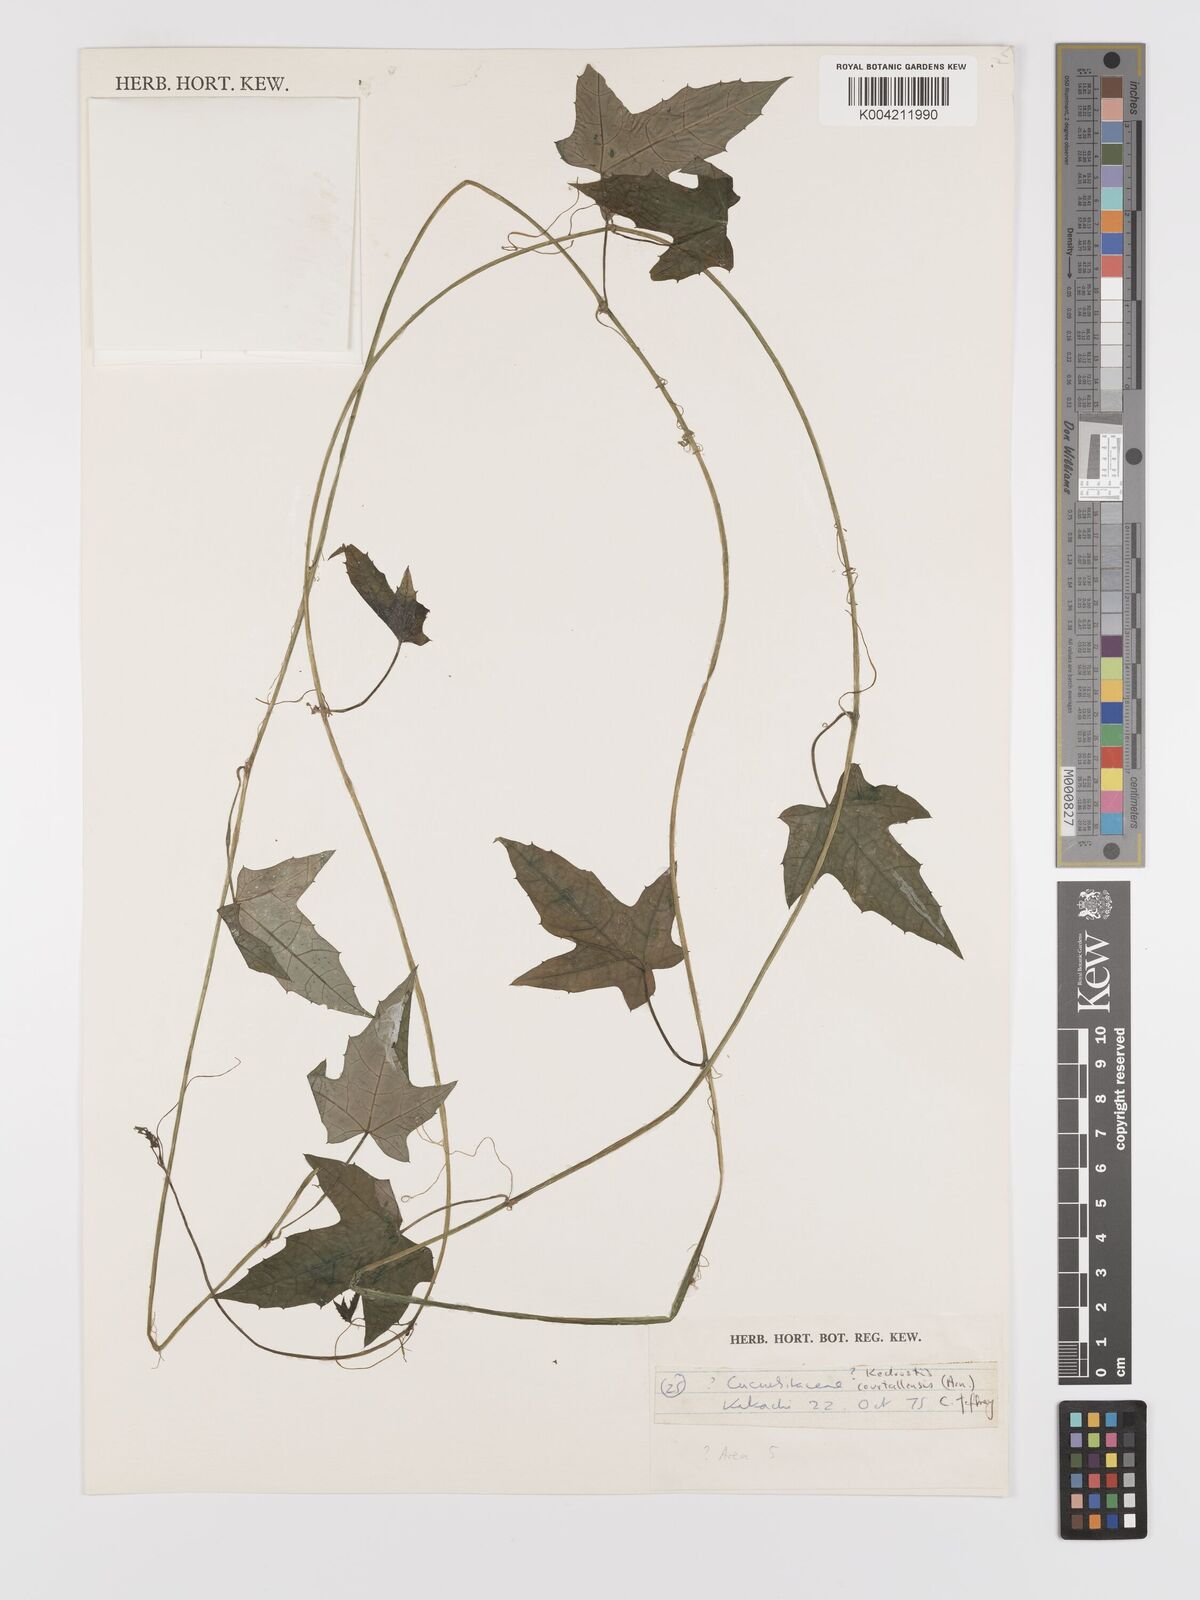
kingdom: Plantae
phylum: Tracheophyta
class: Magnoliopsida
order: Cucurbitales
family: Cucurbitaceae
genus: Kedrostis
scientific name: Kedrostis courtallensis
